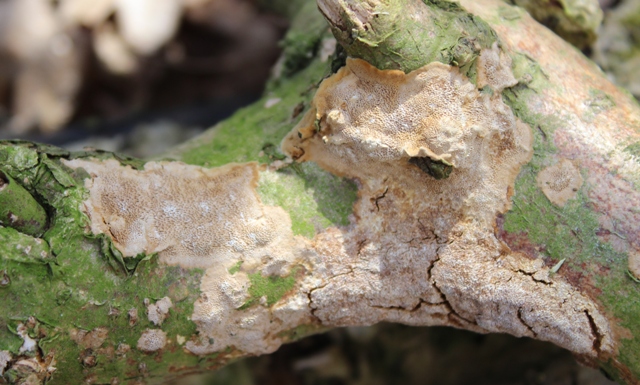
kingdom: Fungi
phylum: Basidiomycota
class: Agaricomycetes
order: Hymenochaetales
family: Hymenochaetaceae
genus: Fuscoporia
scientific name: Fuscoporia ferrea
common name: skorpe-ildporesvamp
